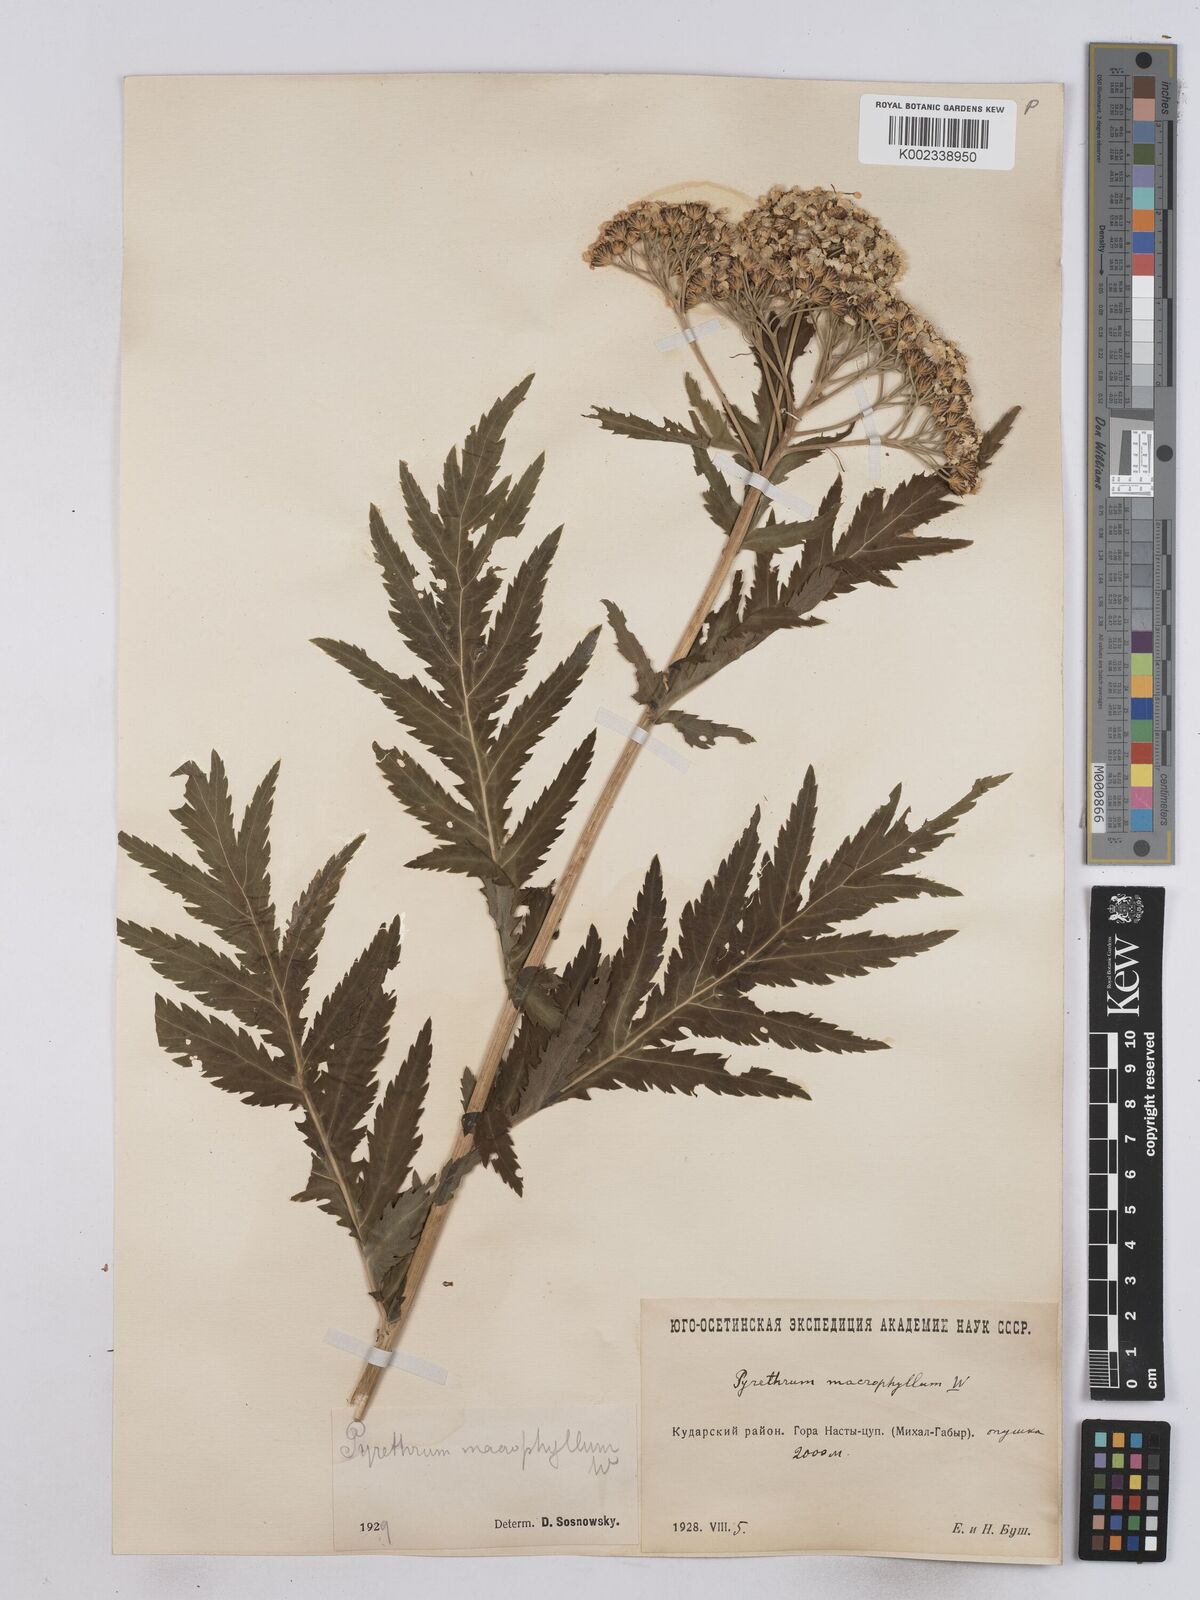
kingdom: Plantae
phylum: Tracheophyta
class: Magnoliopsida
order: Asterales
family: Asteraceae
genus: Tanacetum
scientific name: Tanacetum macrophyllum
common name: Rayed tansy
